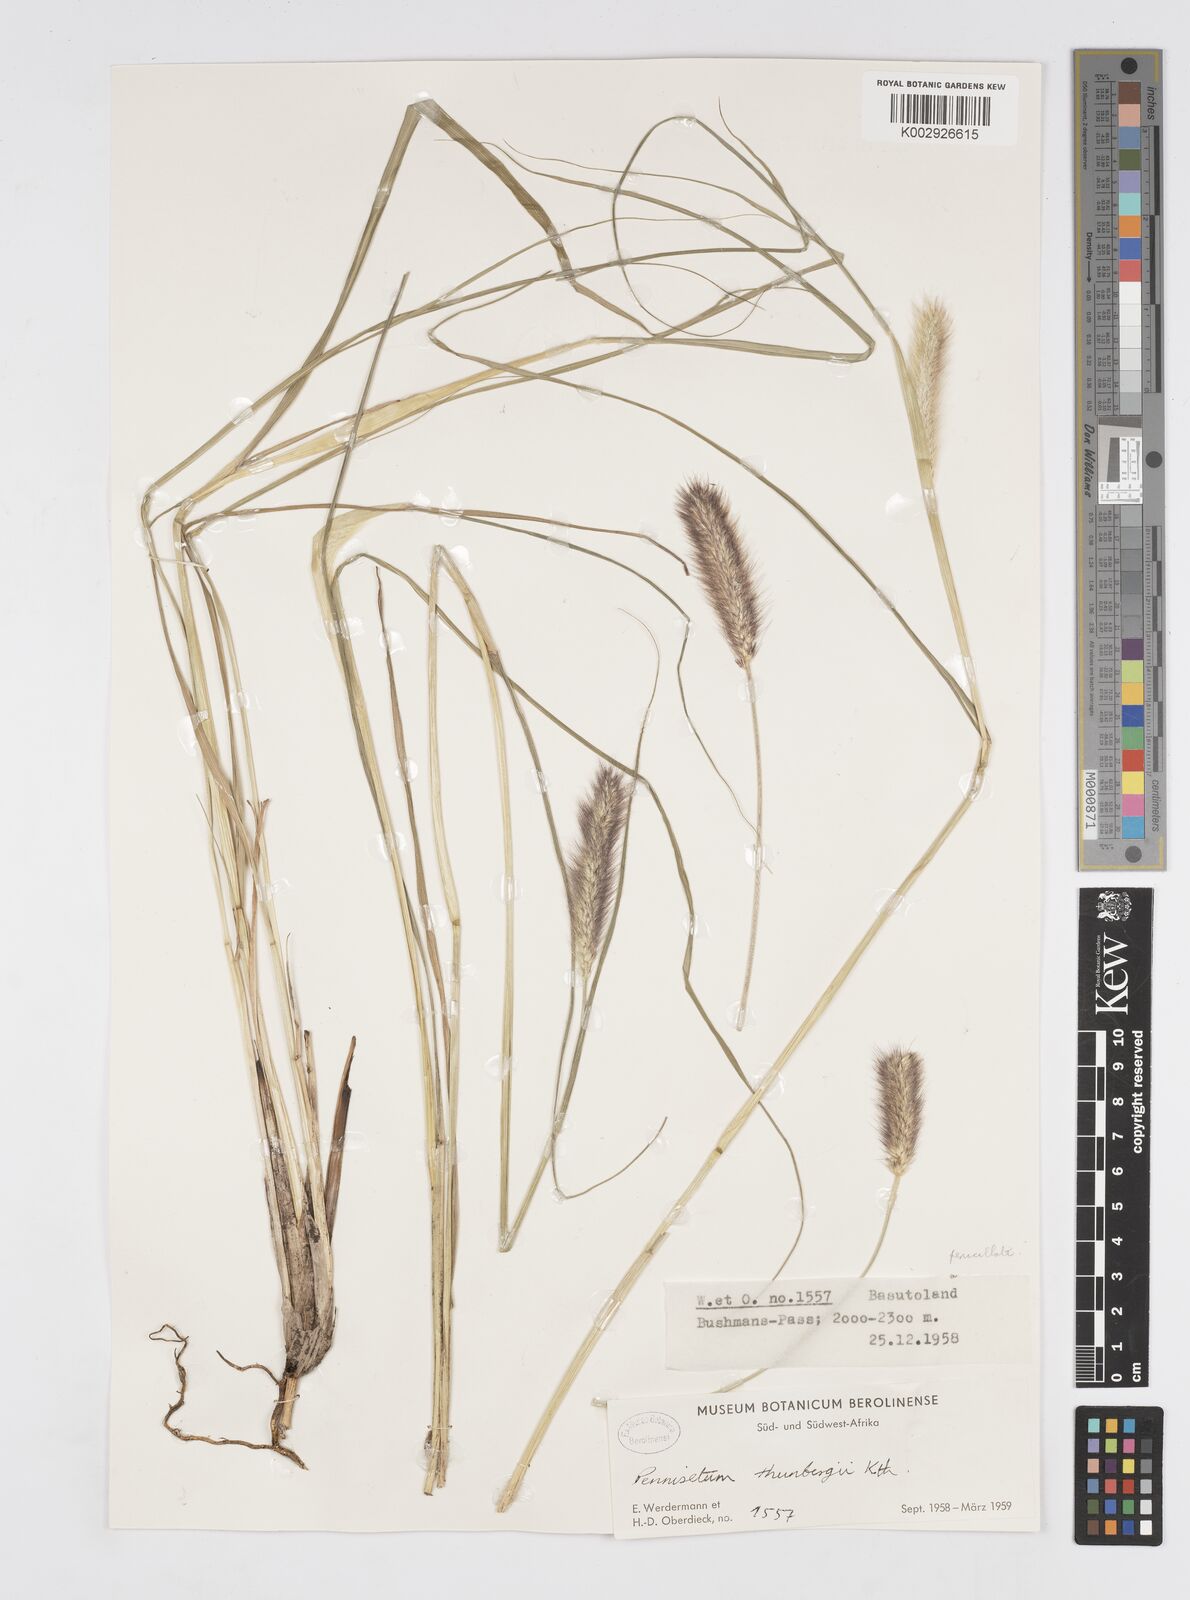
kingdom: Plantae
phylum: Tracheophyta
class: Liliopsida
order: Poales
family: Poaceae
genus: Cenchrus
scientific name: Cenchrus geniculatus
